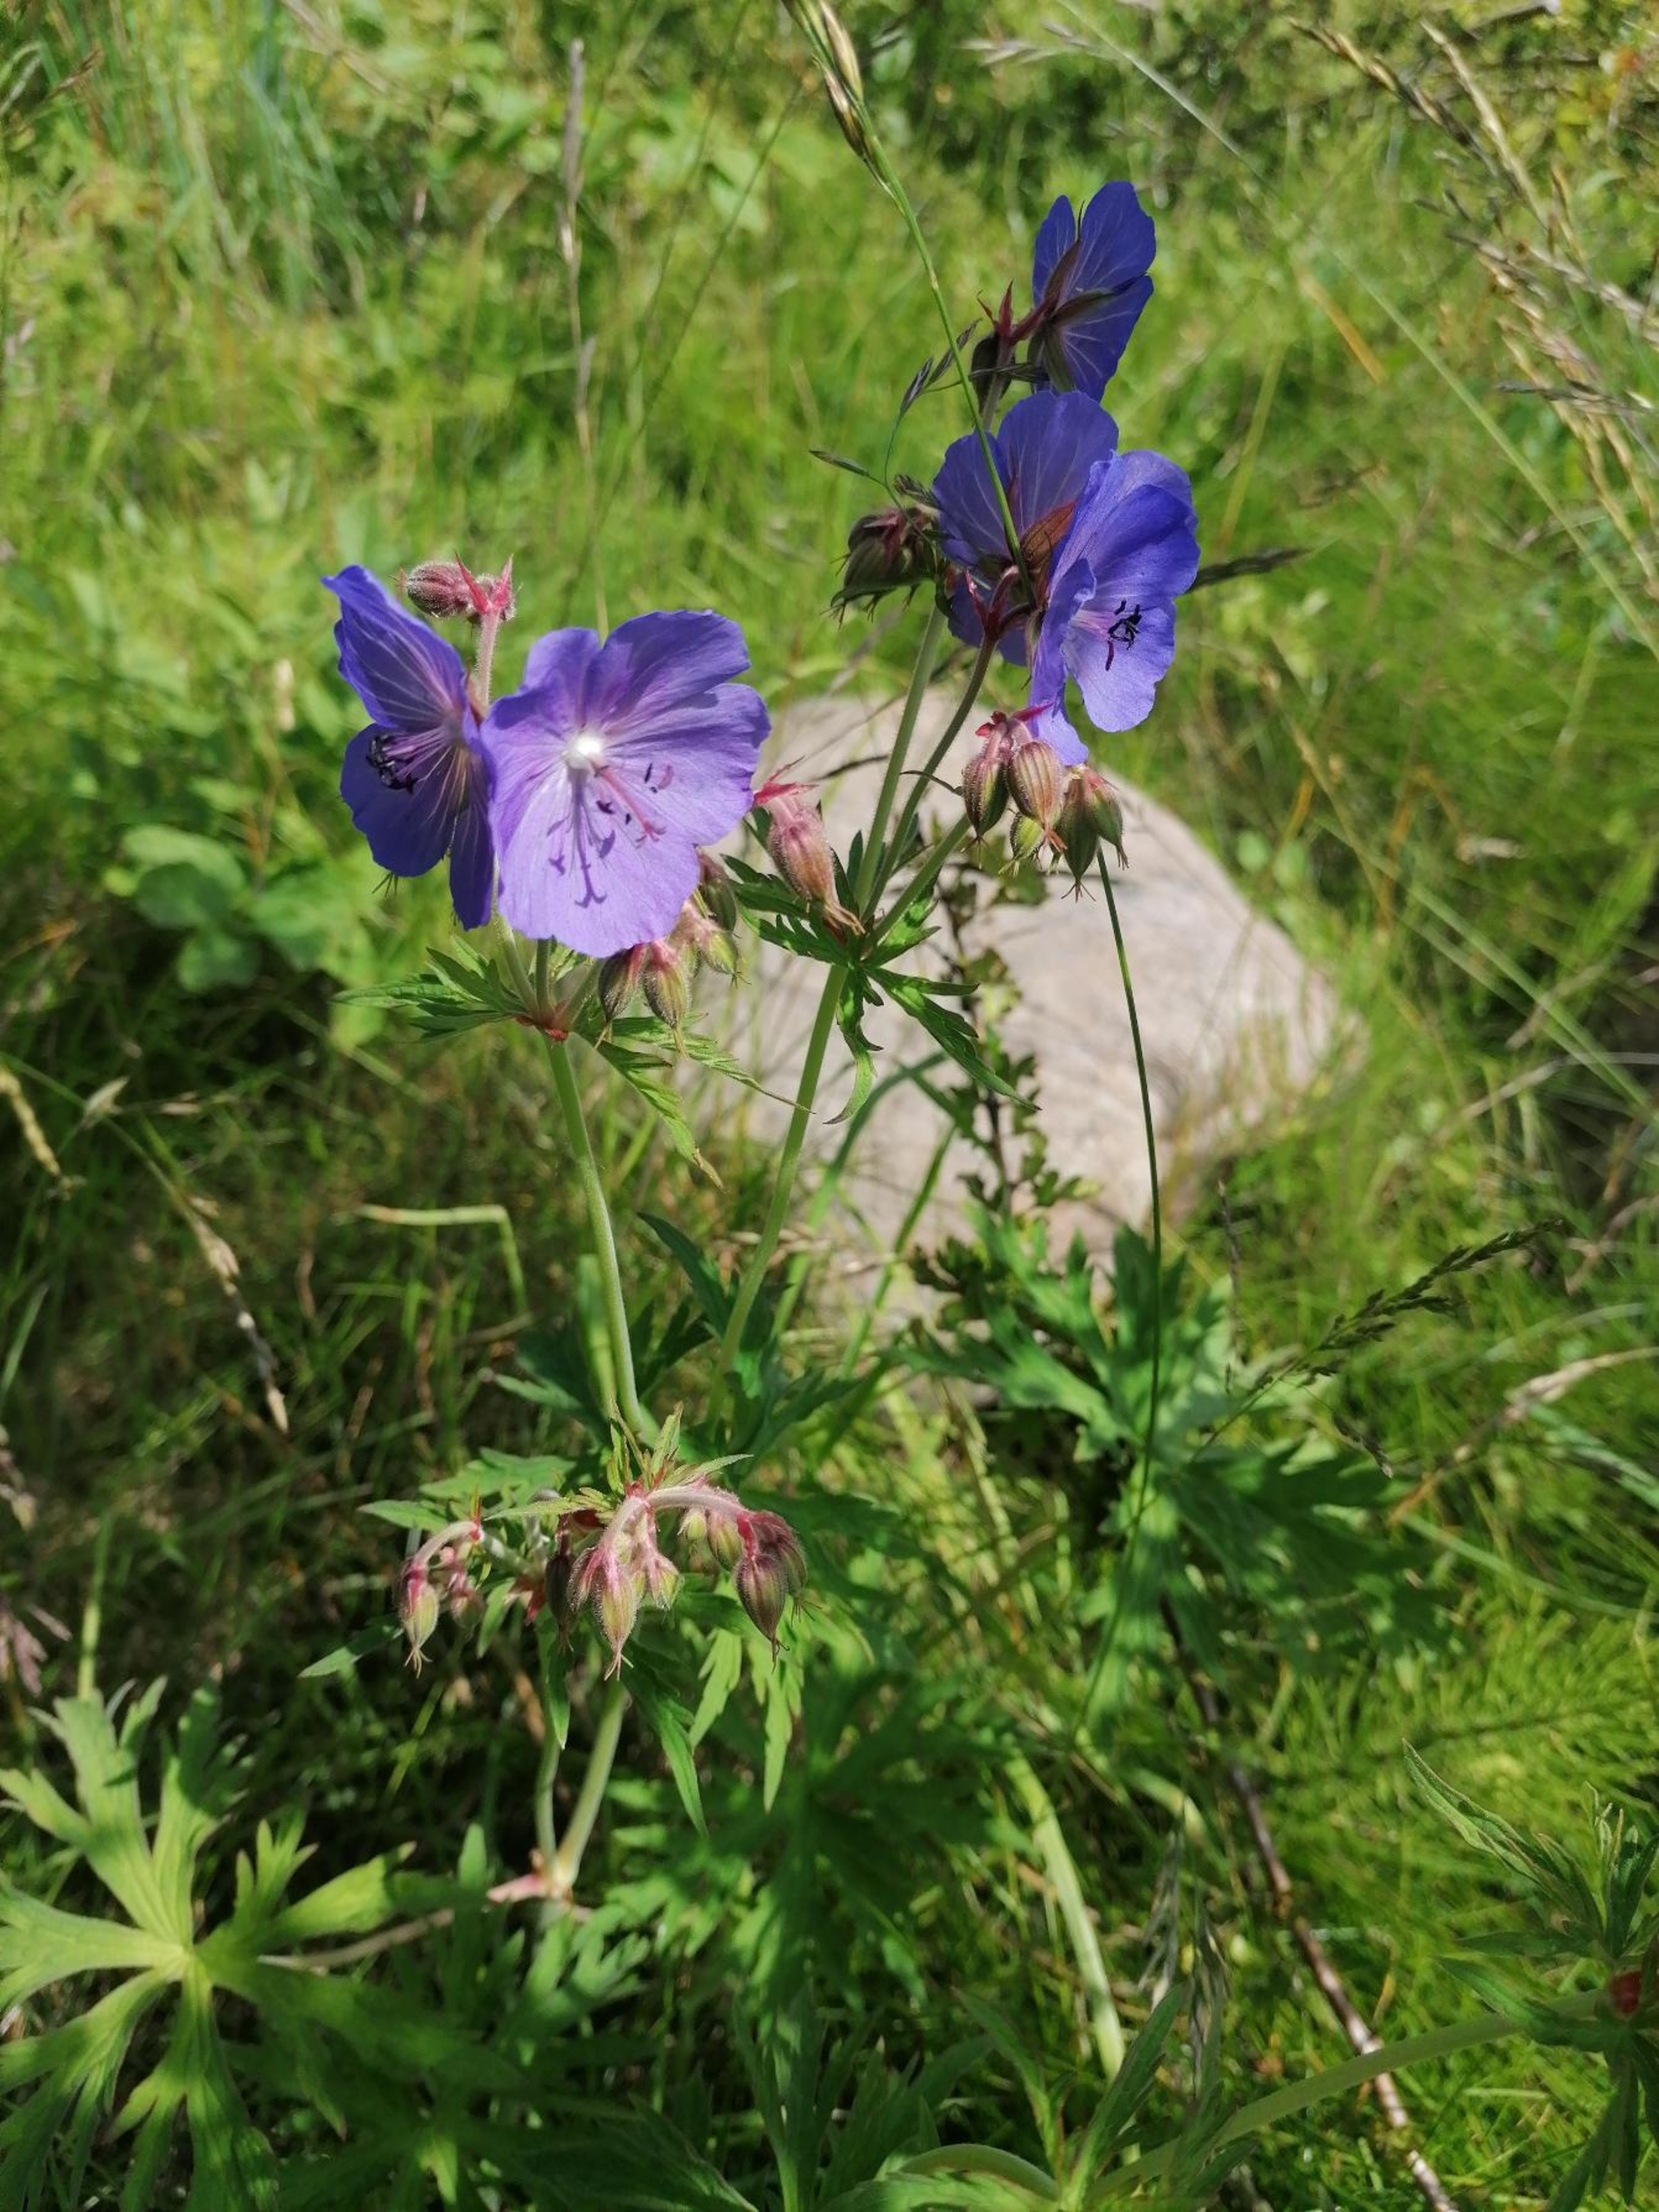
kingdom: Plantae
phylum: Tracheophyta
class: Magnoliopsida
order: Geraniales
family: Geraniaceae
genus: Geranium
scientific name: Geranium pratense
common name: Eng-storkenæb
